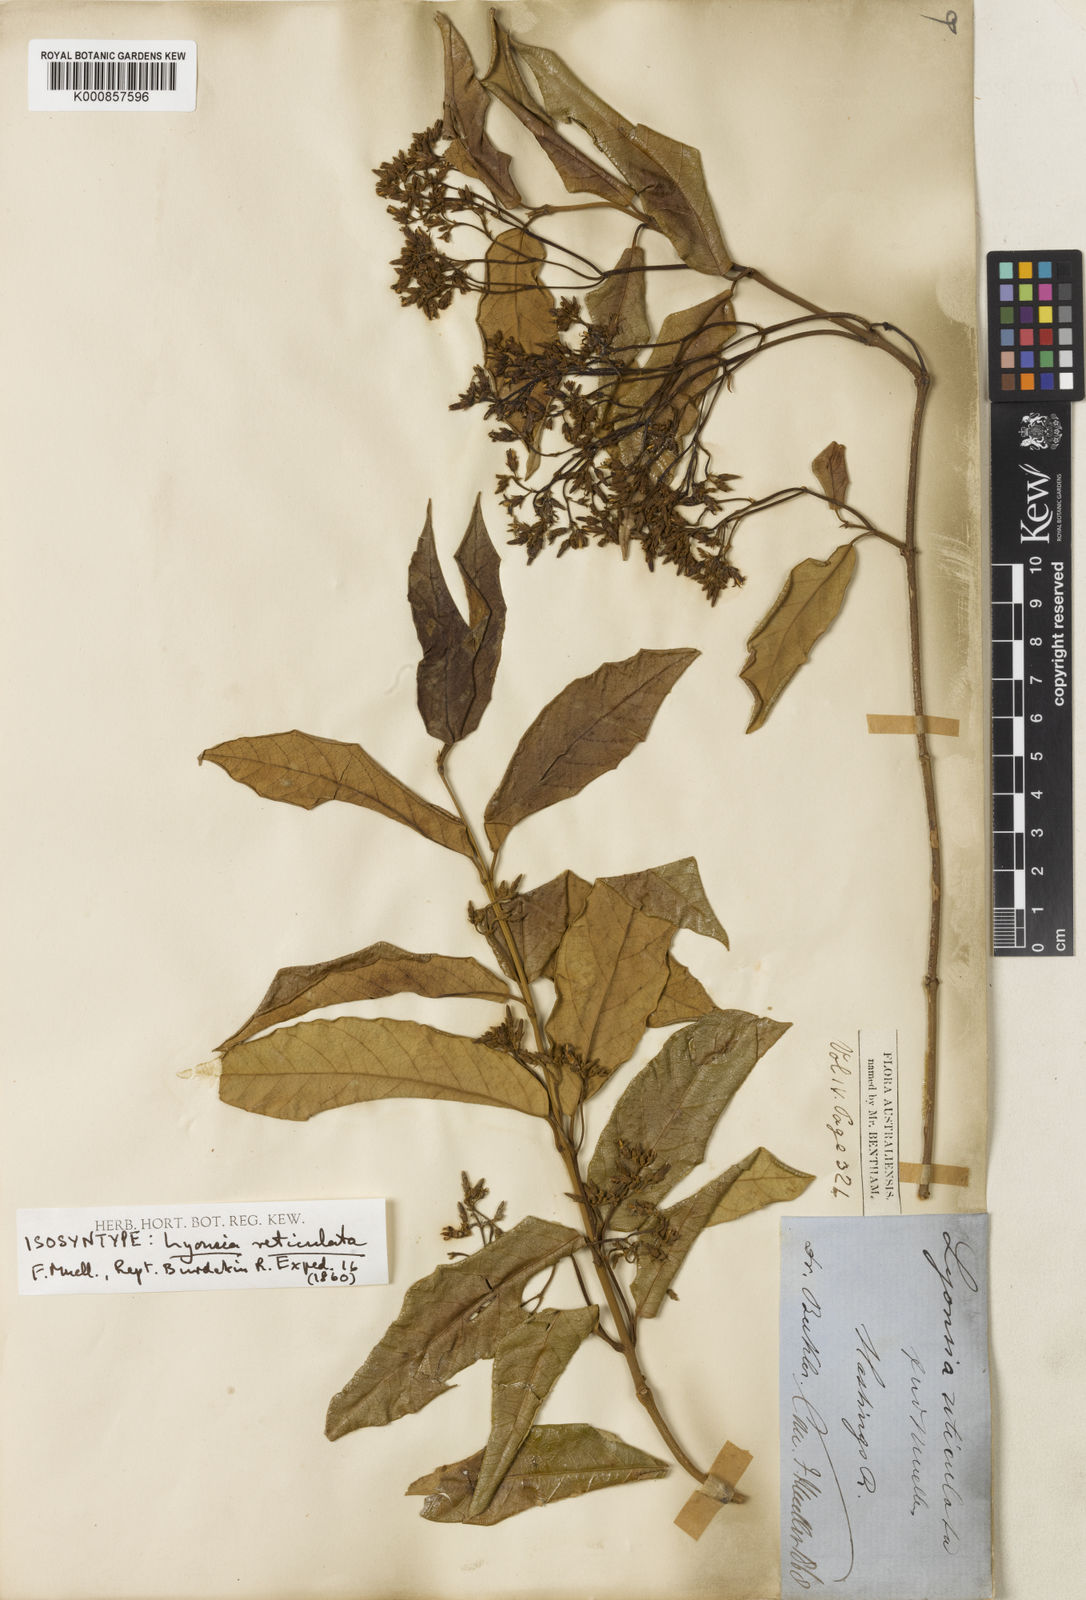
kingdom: Plantae
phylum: Tracheophyta
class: Magnoliopsida
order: Gentianales
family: Apocynaceae
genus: Parsonsia
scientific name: Parsonsia straminea
